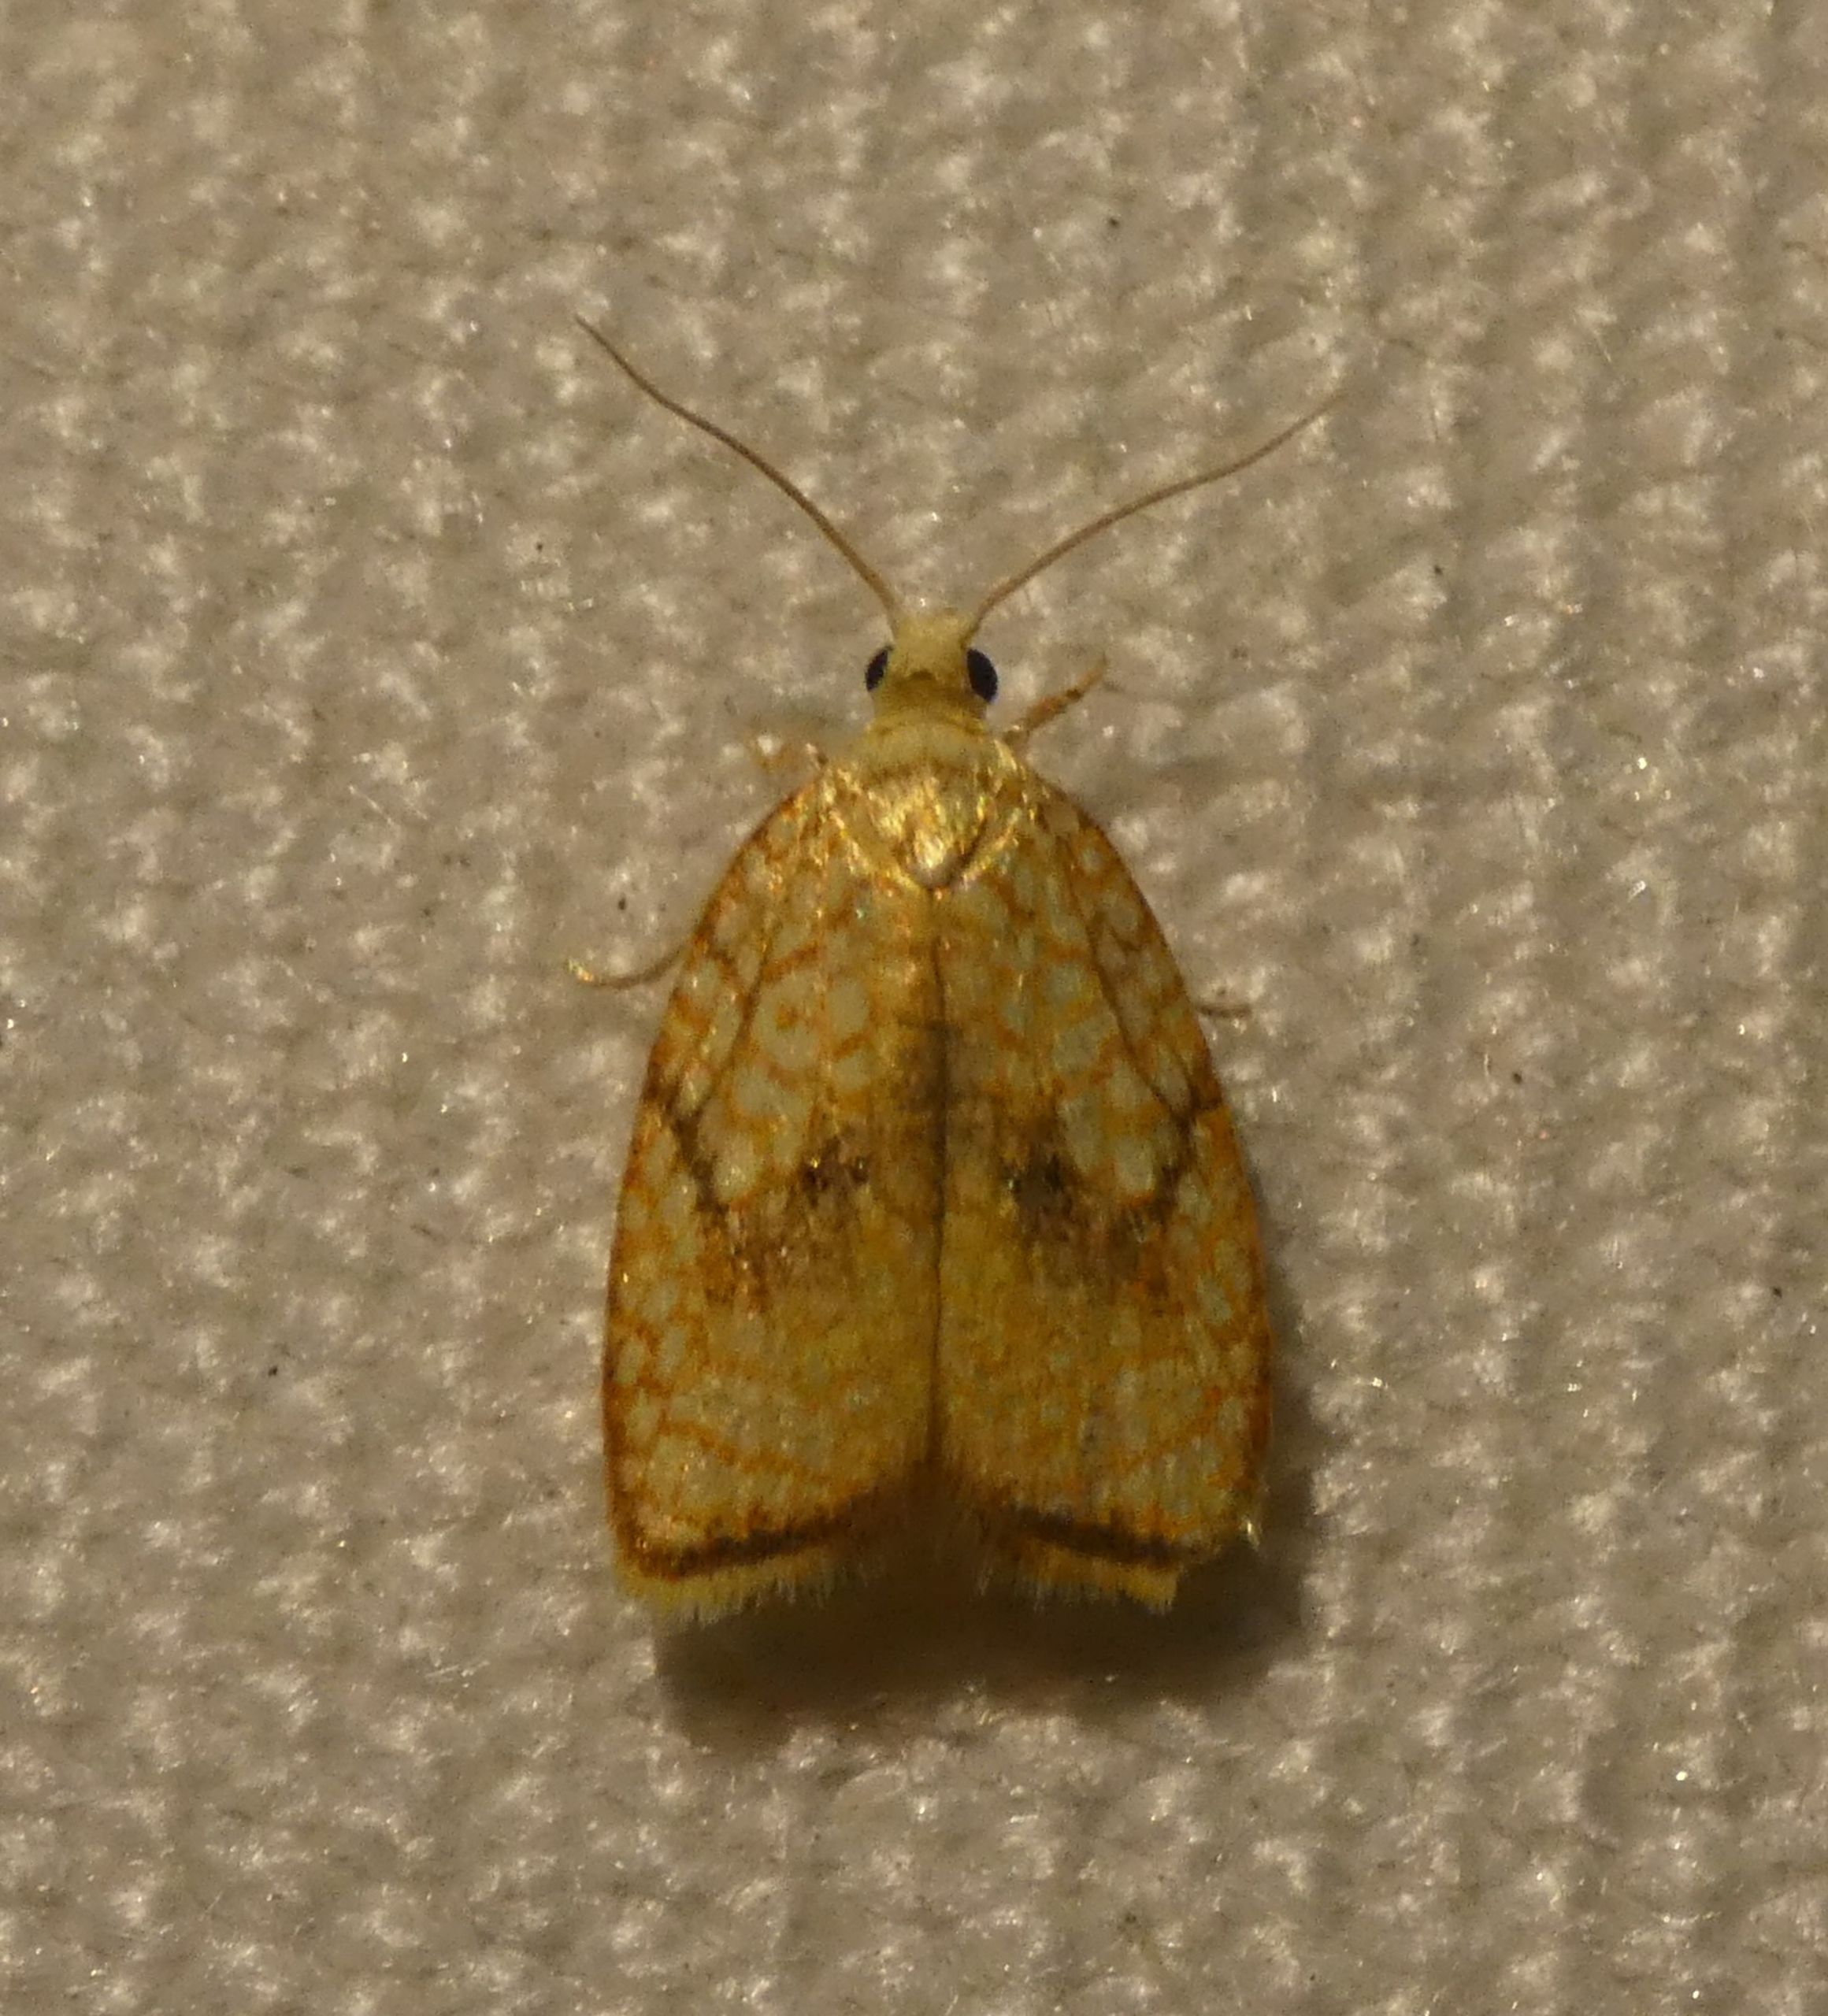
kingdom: Animalia
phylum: Arthropoda
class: Insecta
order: Lepidoptera
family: Tortricidae
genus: Acleris
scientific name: Acleris forsskaleana
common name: Gul ahornvikler
